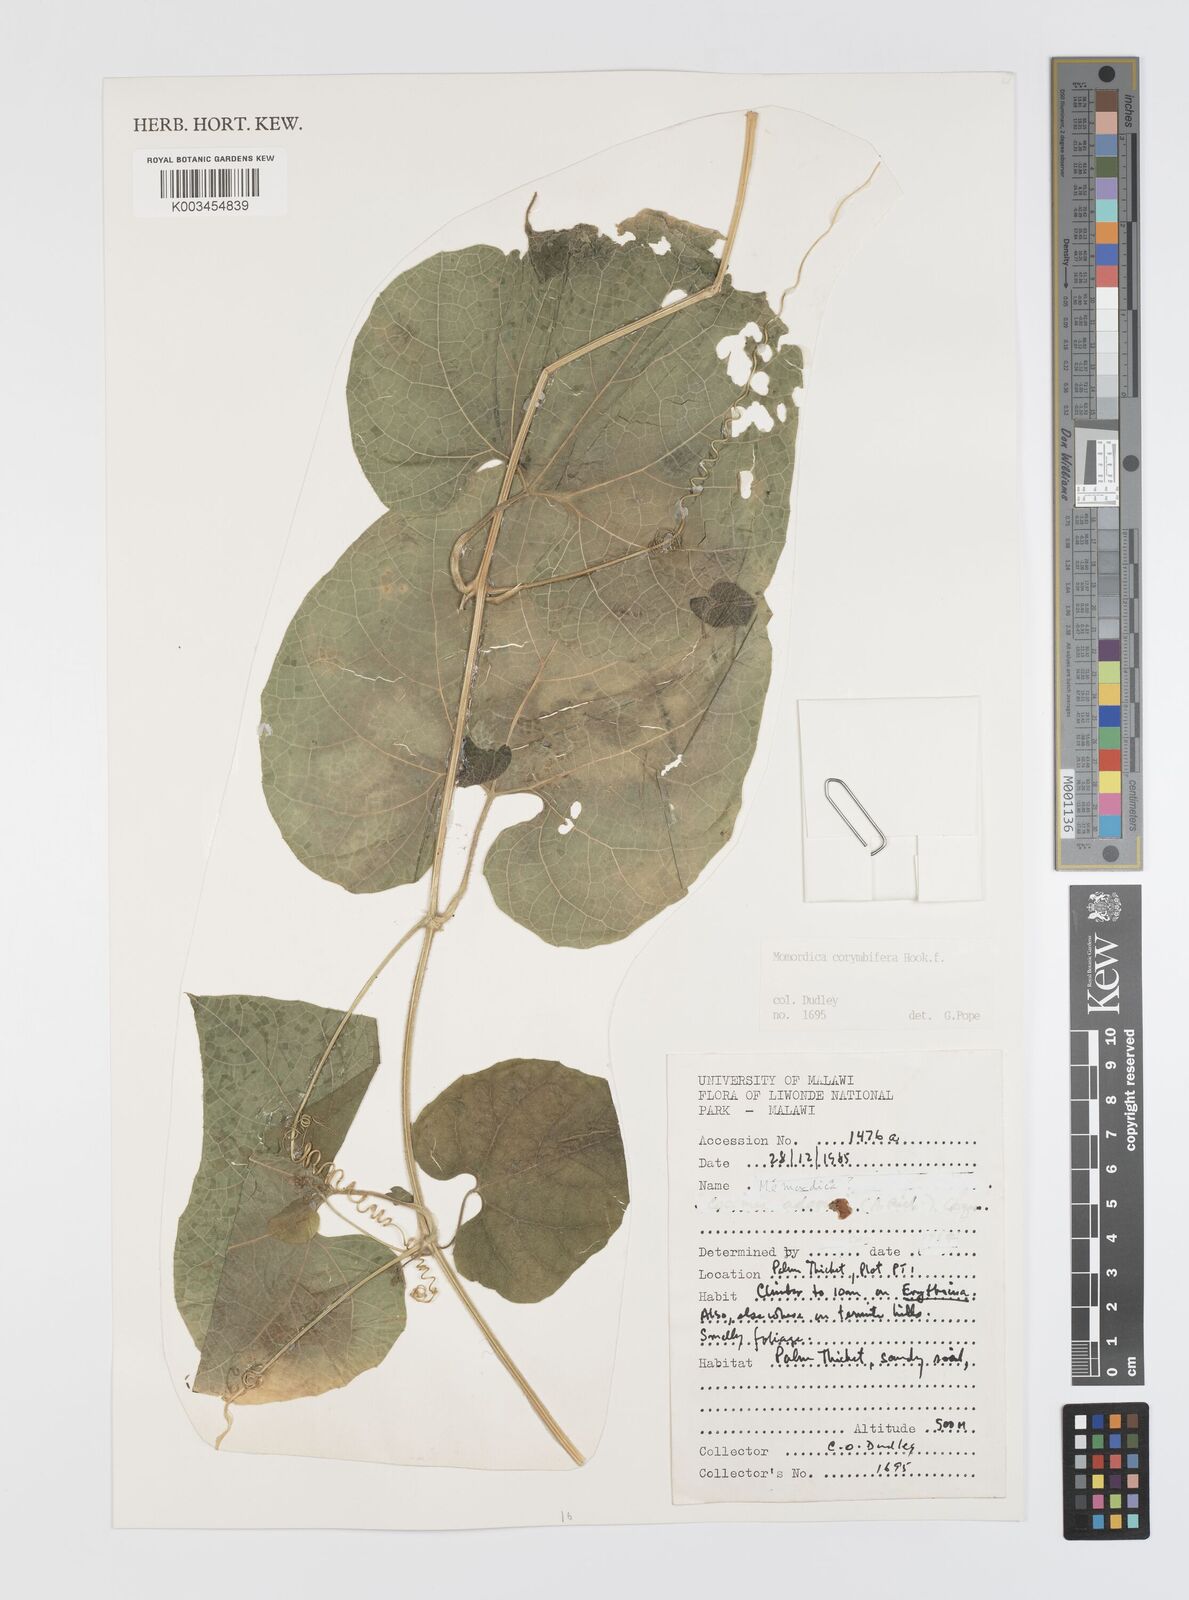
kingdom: Plantae
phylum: Tracheophyta
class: Magnoliopsida
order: Cucurbitales
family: Cucurbitaceae
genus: Momordica
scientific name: Momordica corymbifera
